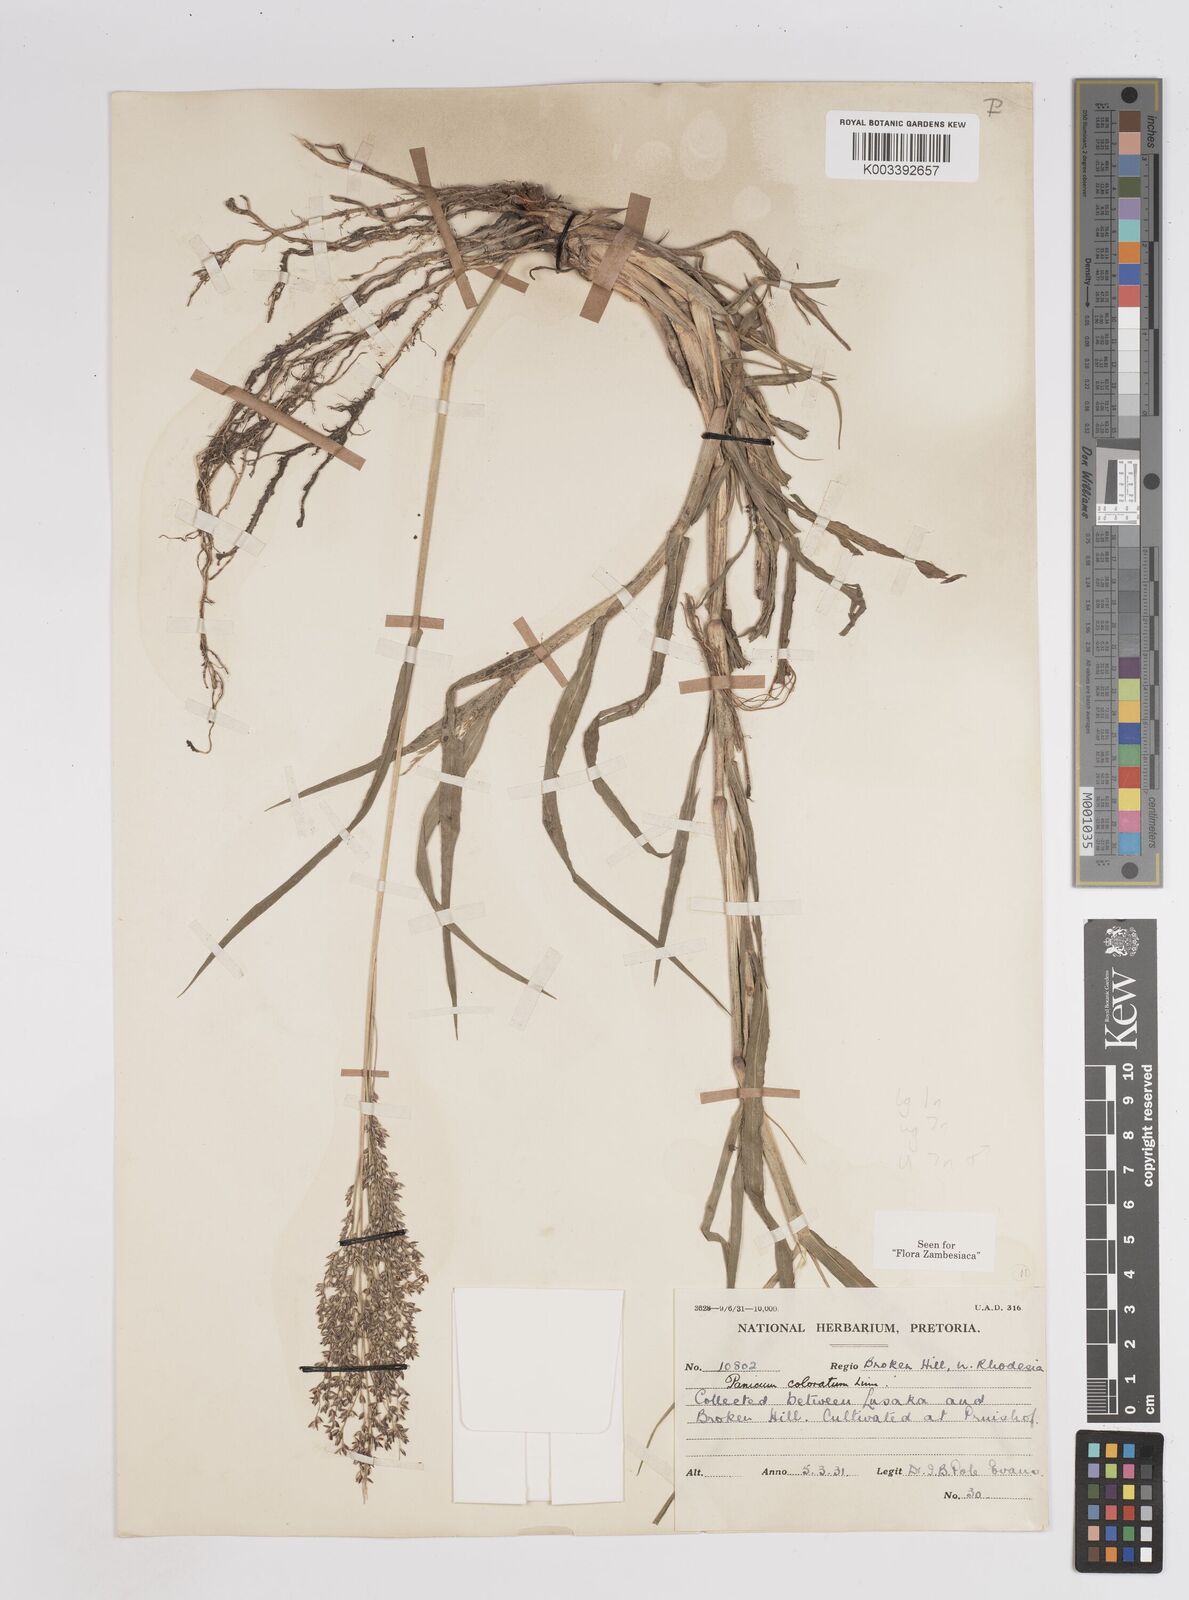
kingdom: Plantae
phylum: Tracheophyta
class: Liliopsida
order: Poales
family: Poaceae
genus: Panicum
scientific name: Panicum
